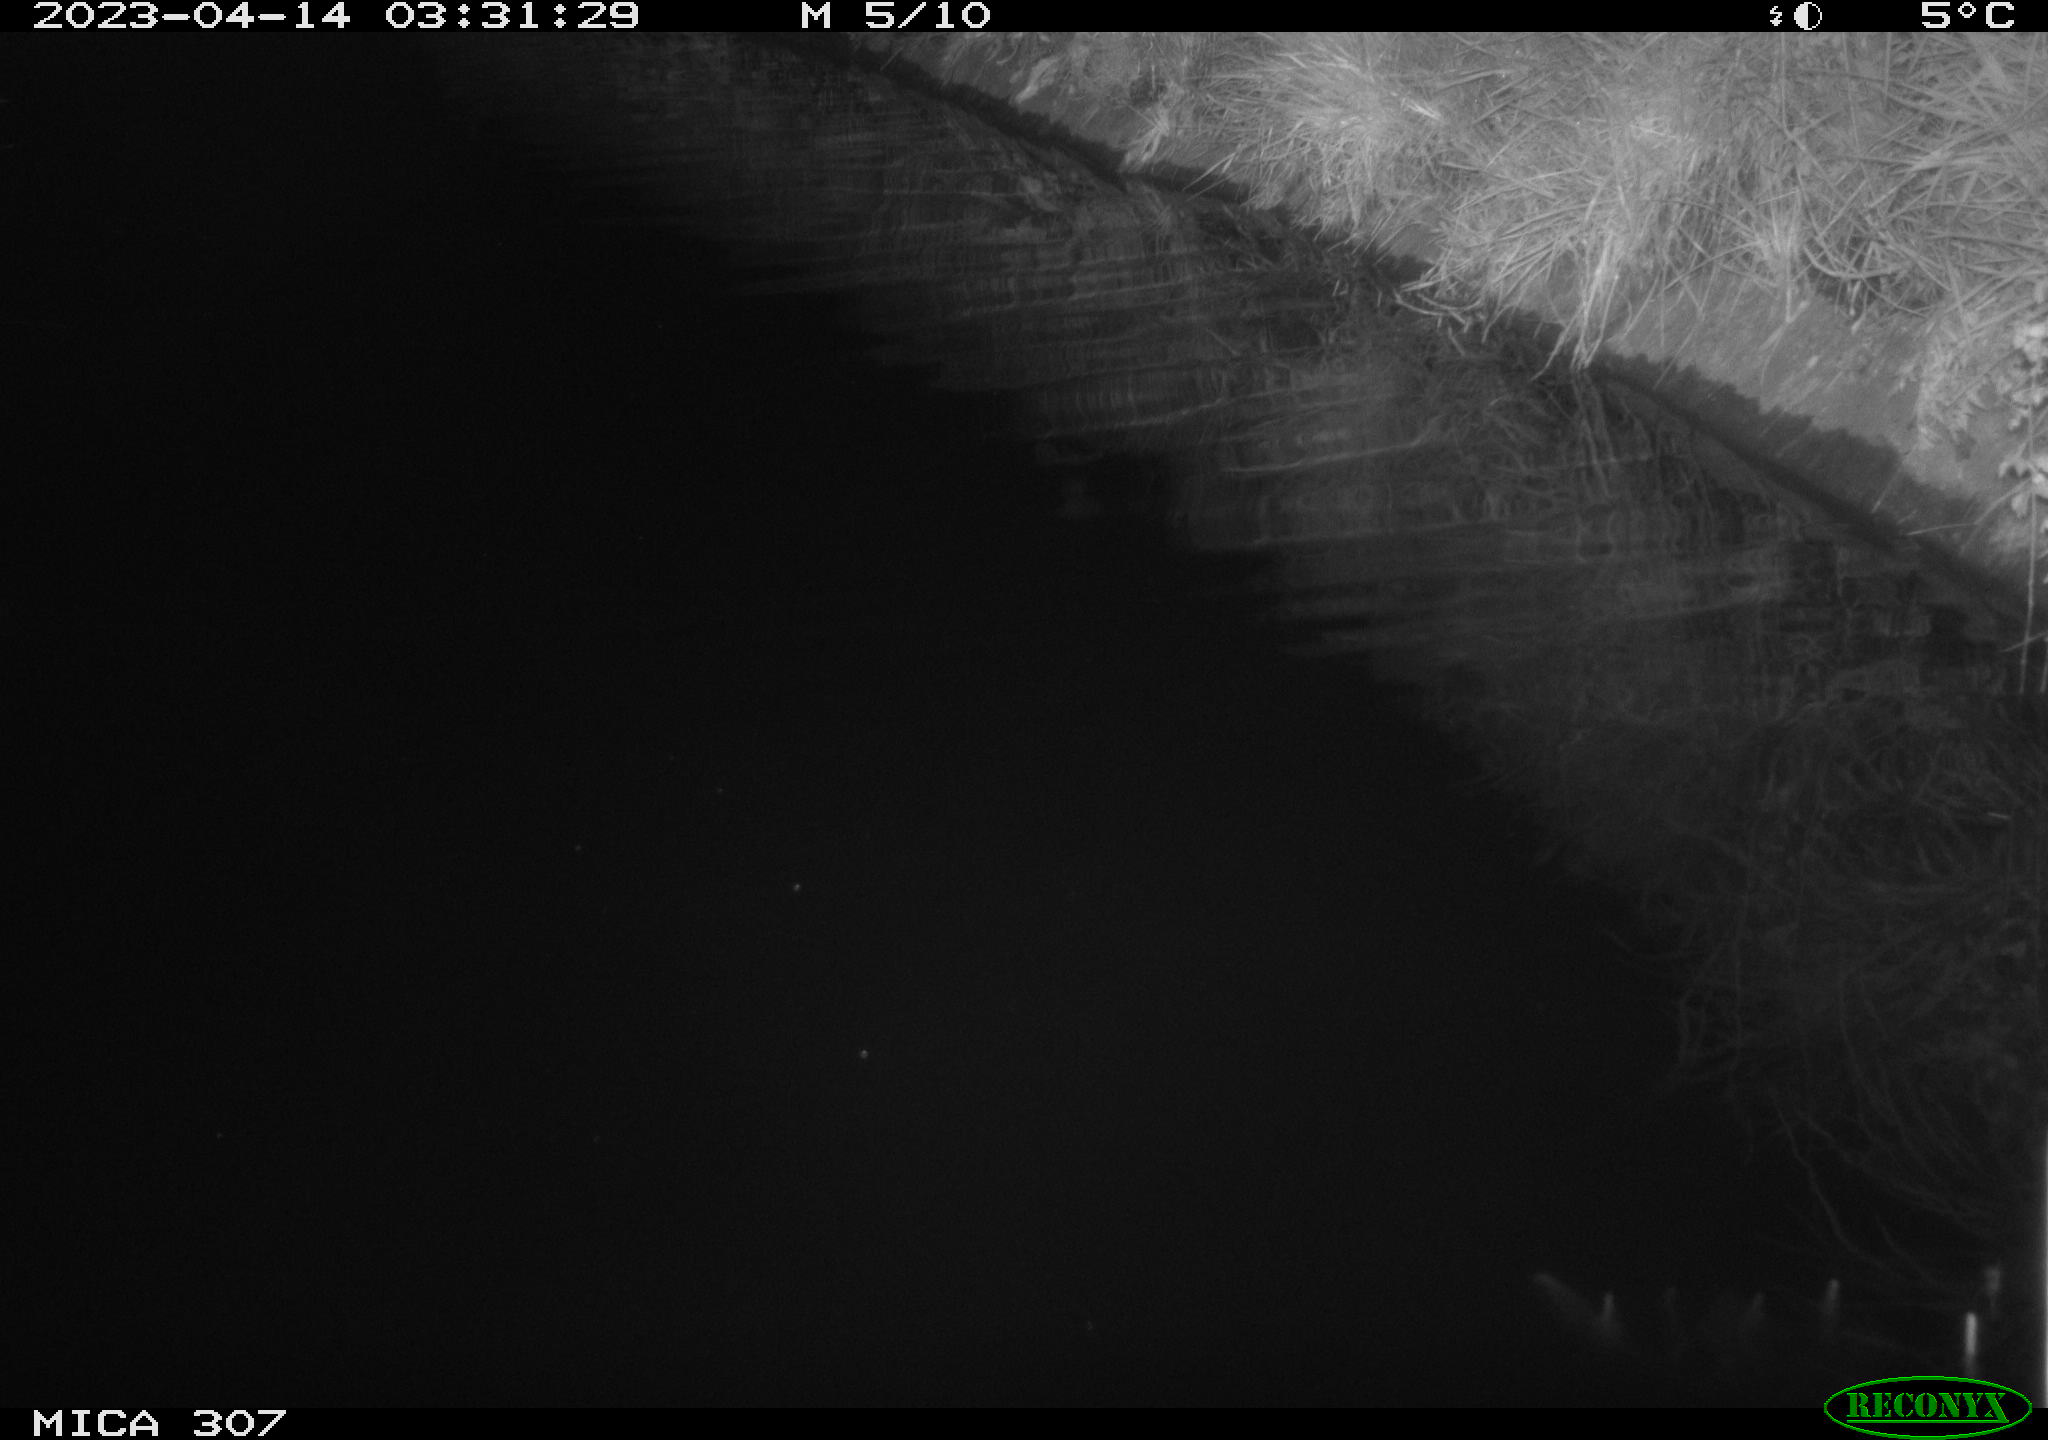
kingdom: Animalia
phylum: Chordata
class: Mammalia
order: Rodentia
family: Muridae
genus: Rattus
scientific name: Rattus norvegicus
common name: Brown rat
